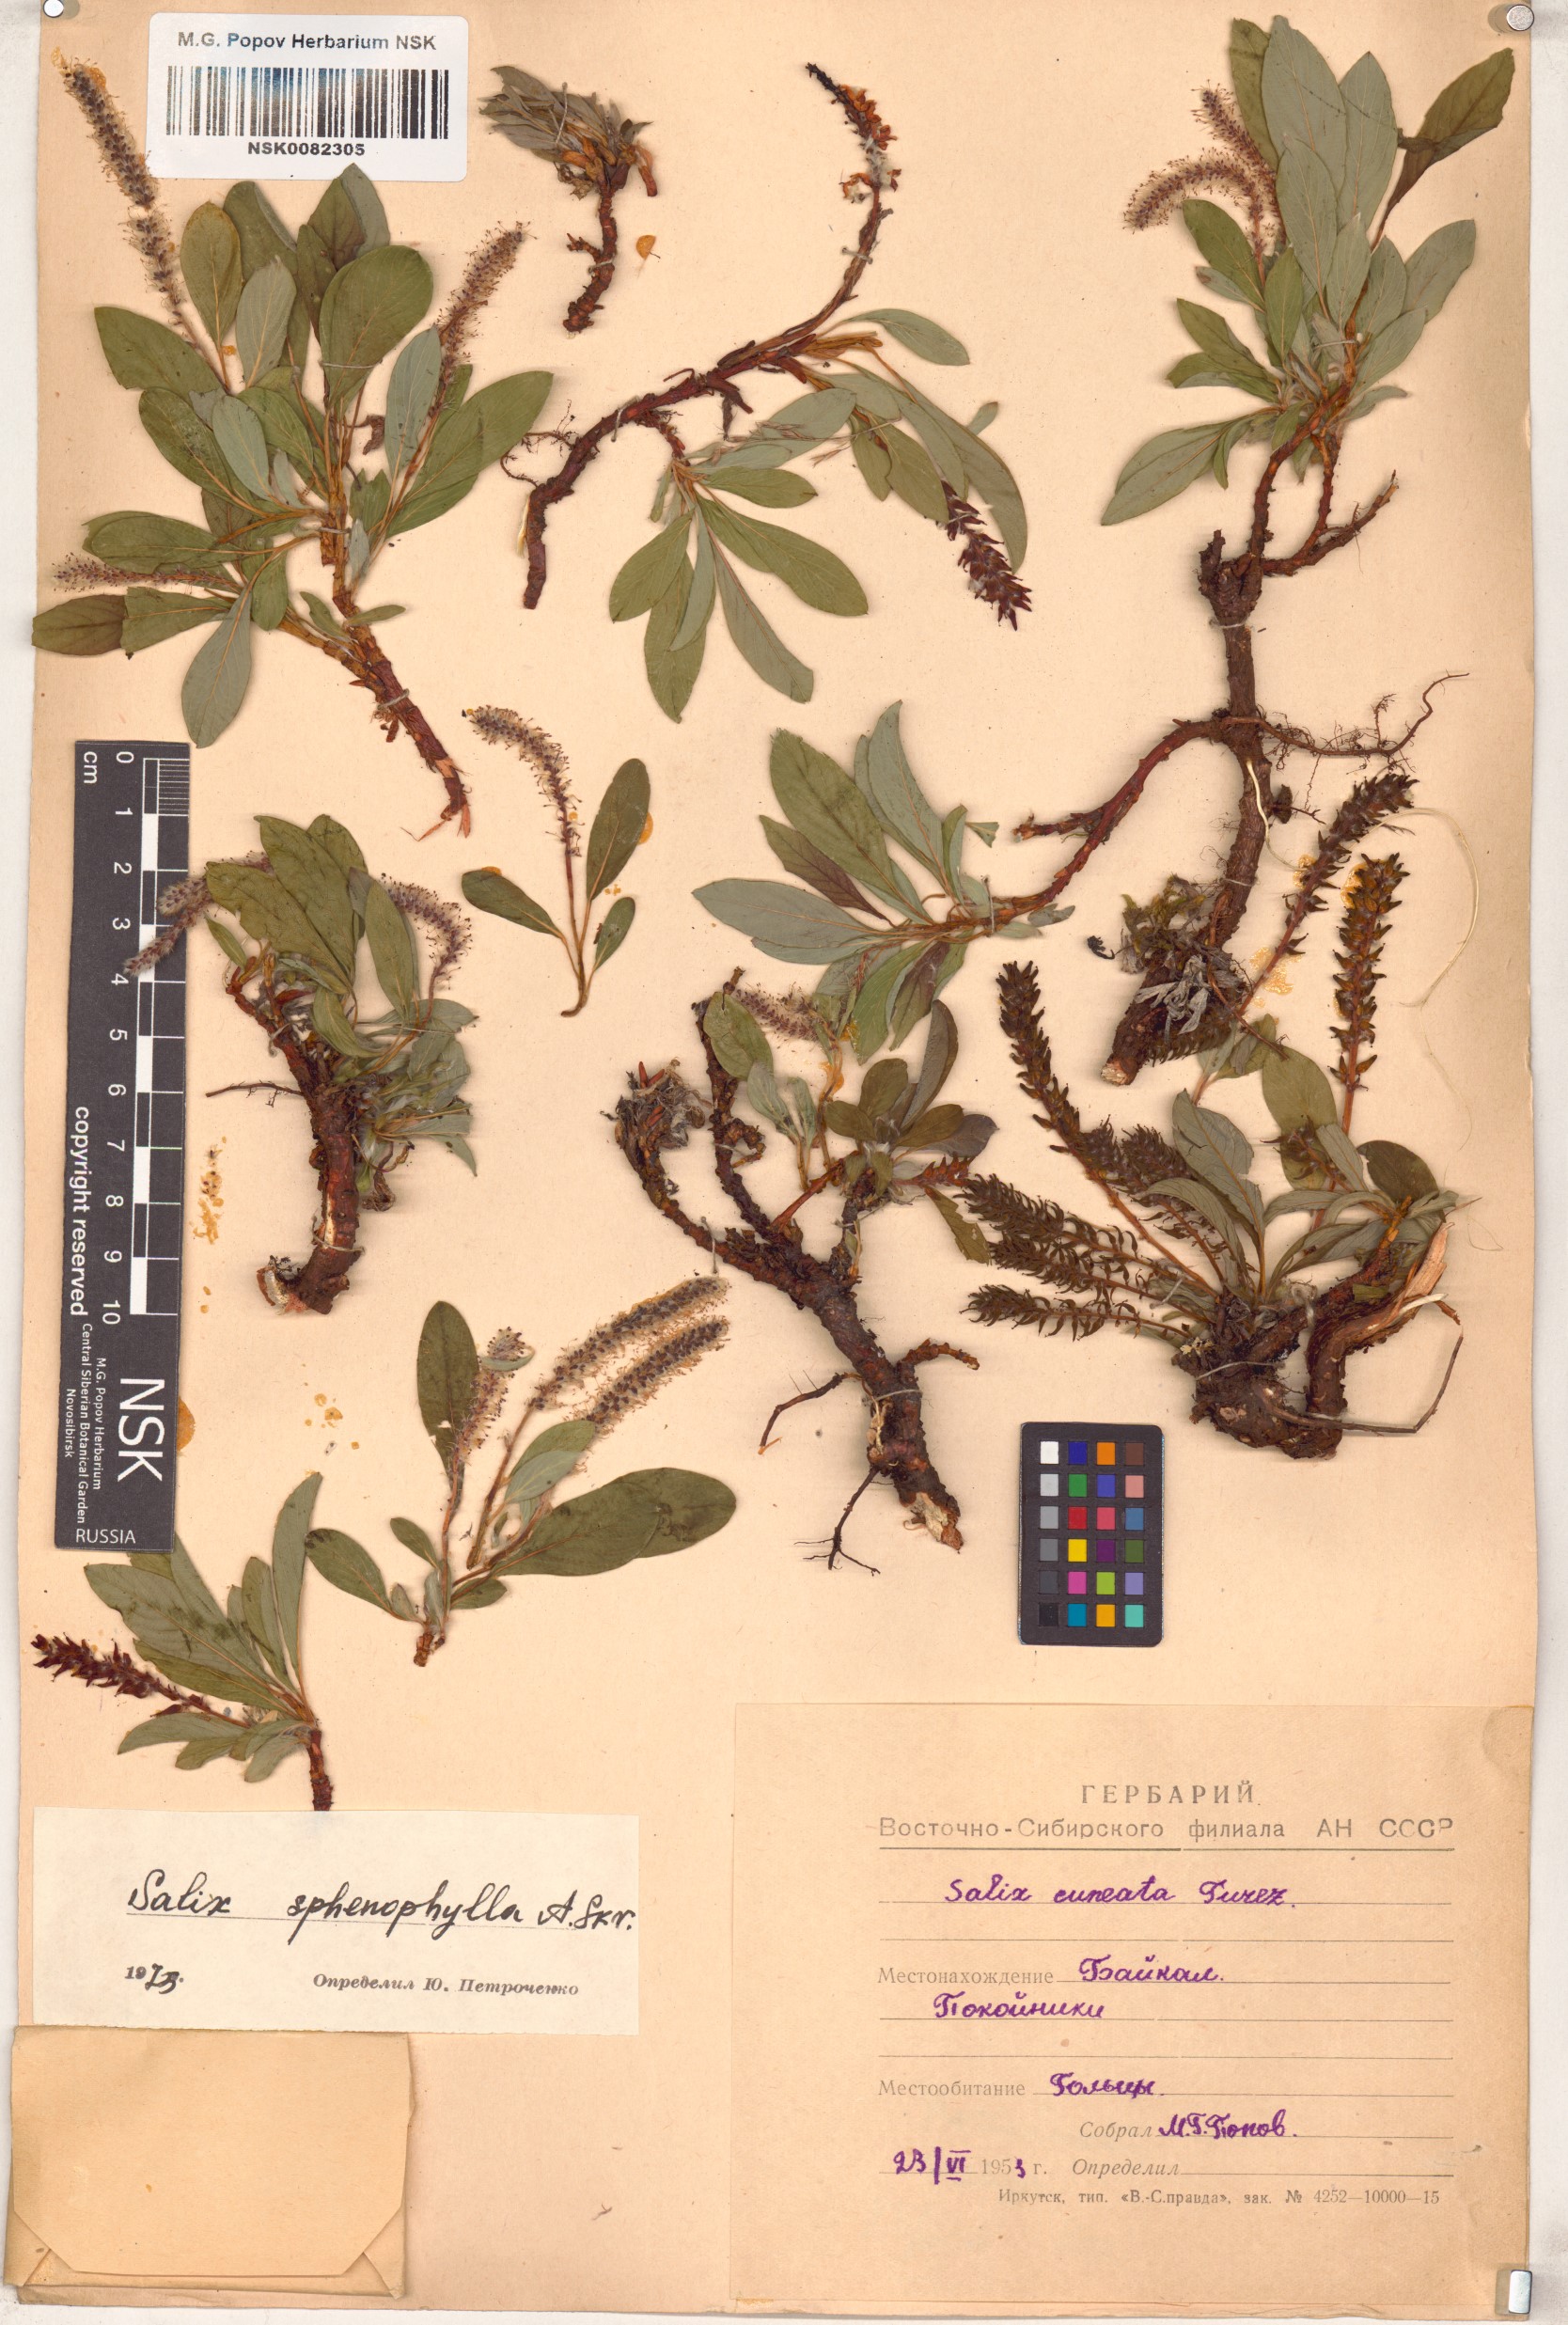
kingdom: Plantae
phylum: Tracheophyta
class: Magnoliopsida
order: Malpighiales
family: Salicaceae
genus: Salix
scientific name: Salix sphenophylla
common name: Wedge-leaved willow
